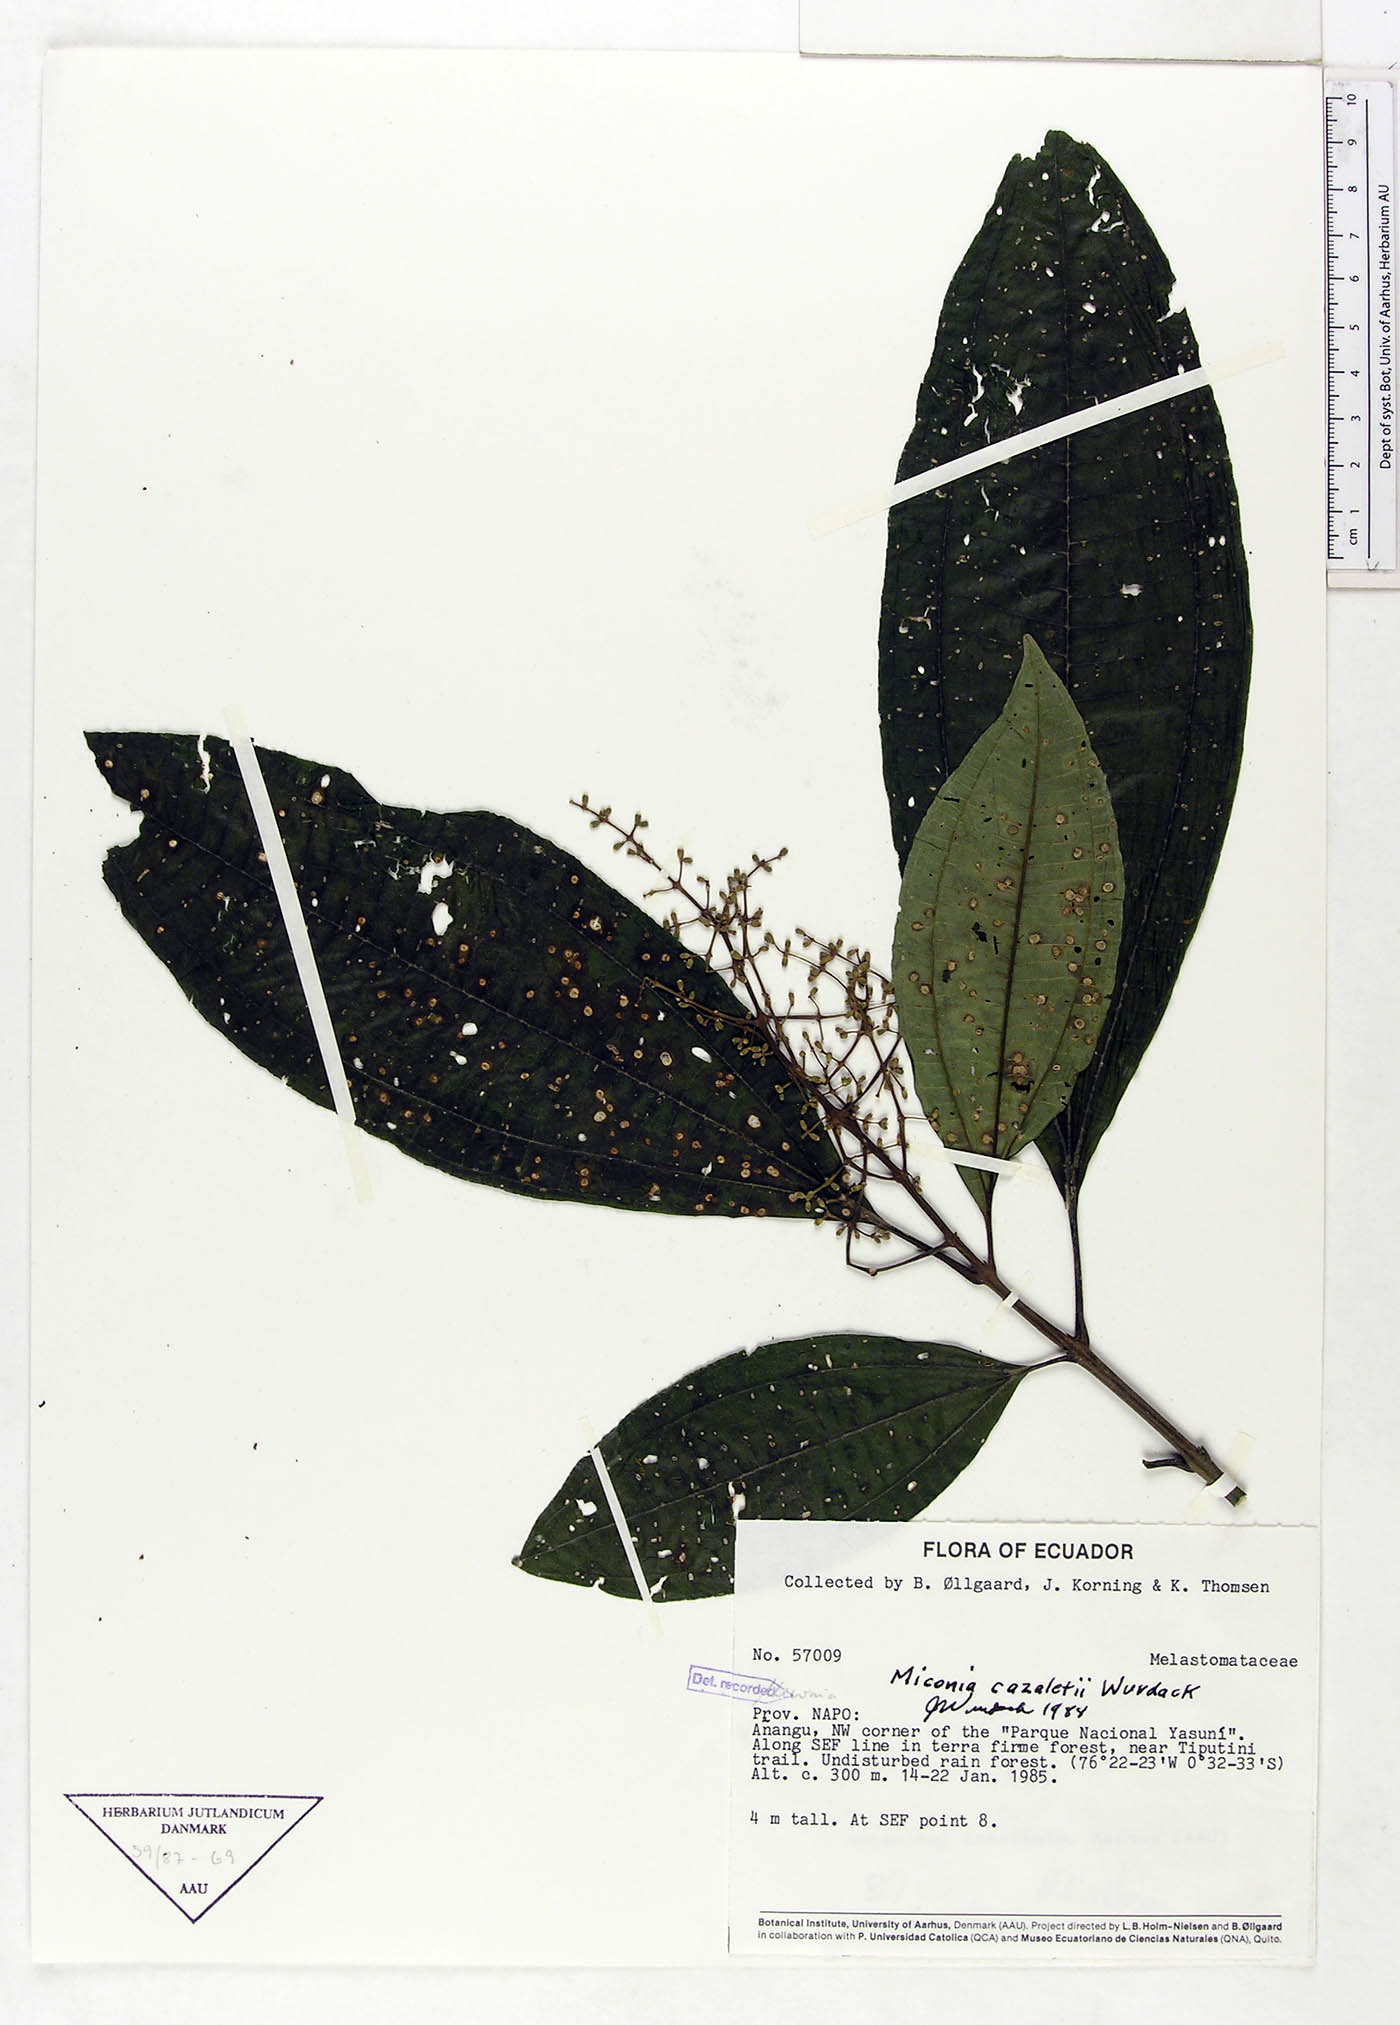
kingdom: Plantae
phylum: Tracheophyta
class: Magnoliopsida
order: Myrtales
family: Melastomataceae
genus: Miconia
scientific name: Miconia cazaletii
